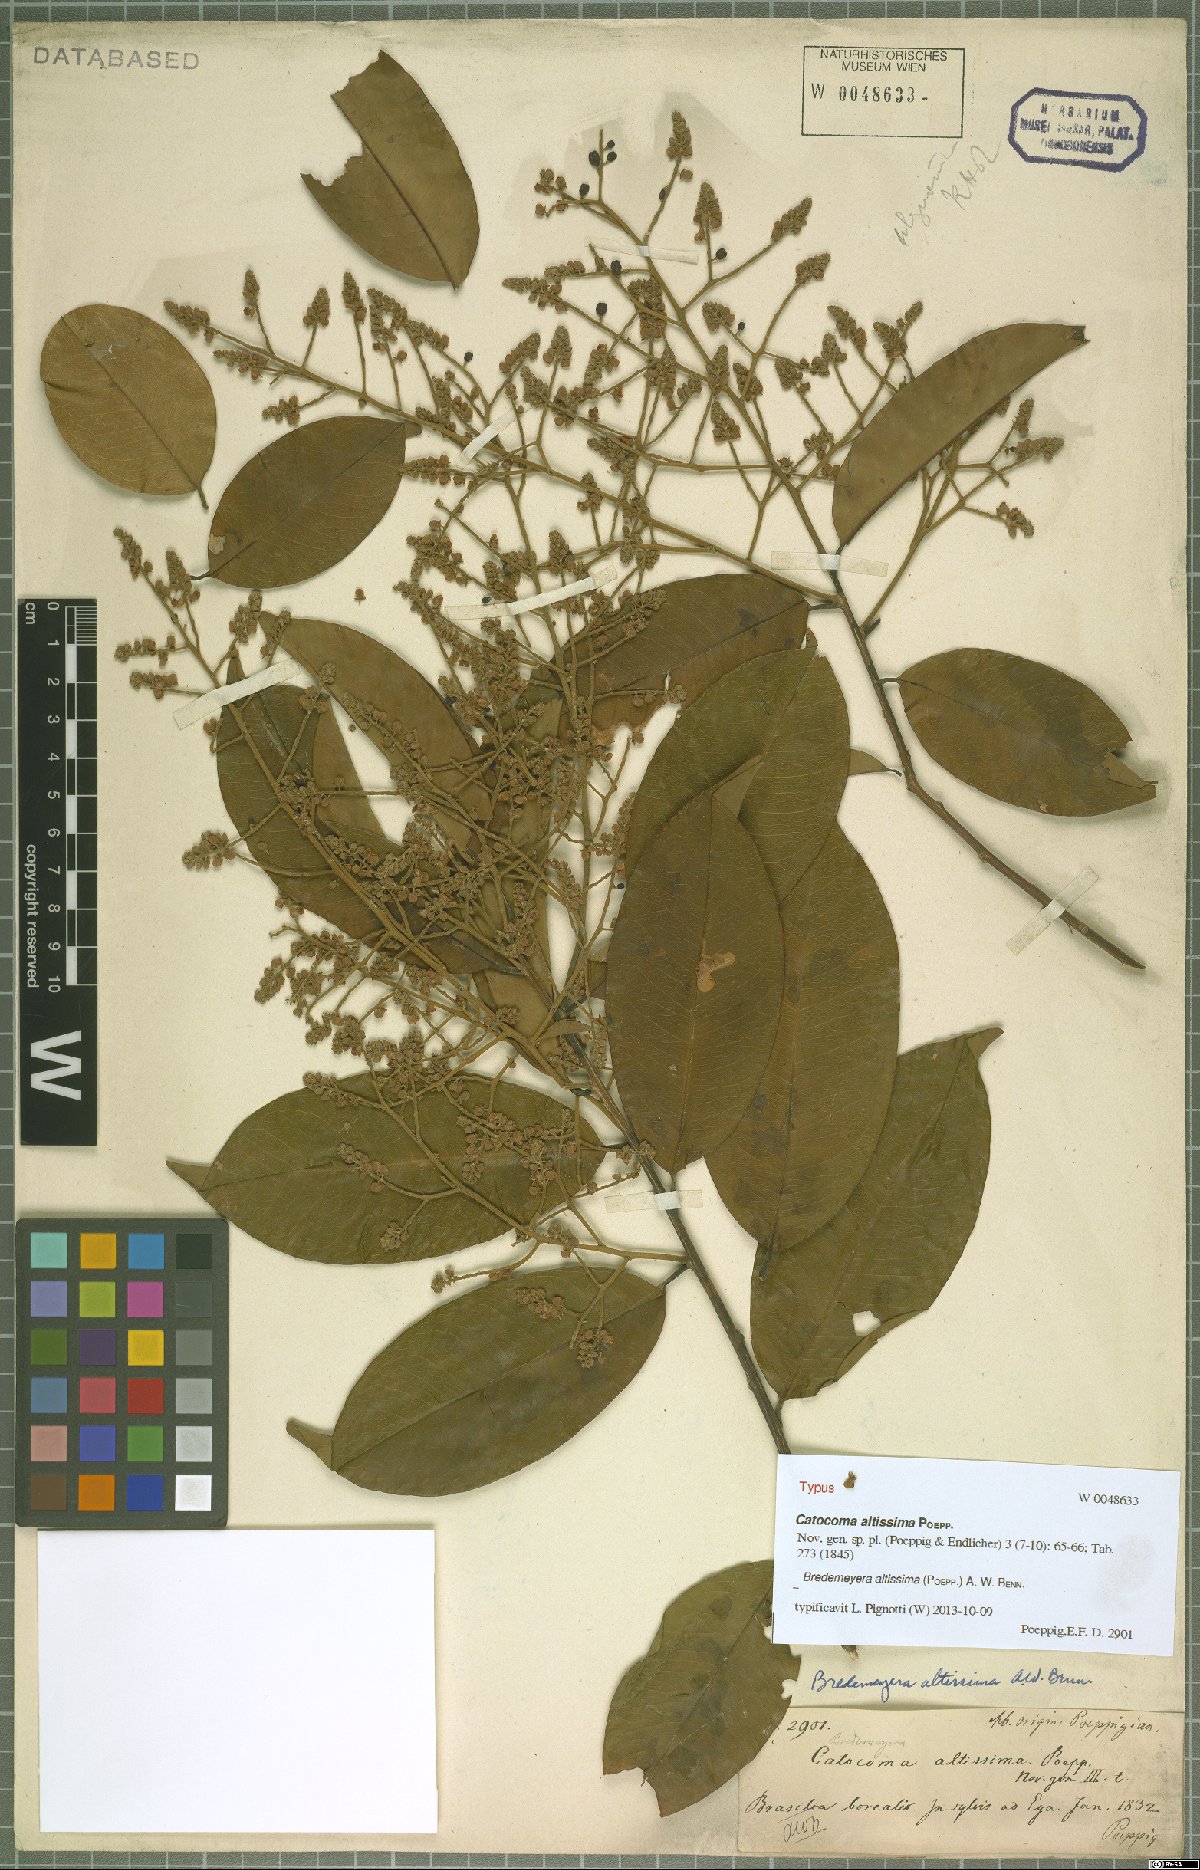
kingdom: Plantae
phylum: Tracheophyta
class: Magnoliopsida
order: Fabales
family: Polygalaceae
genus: Bredemeyera
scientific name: Bredemeyera divaricata
